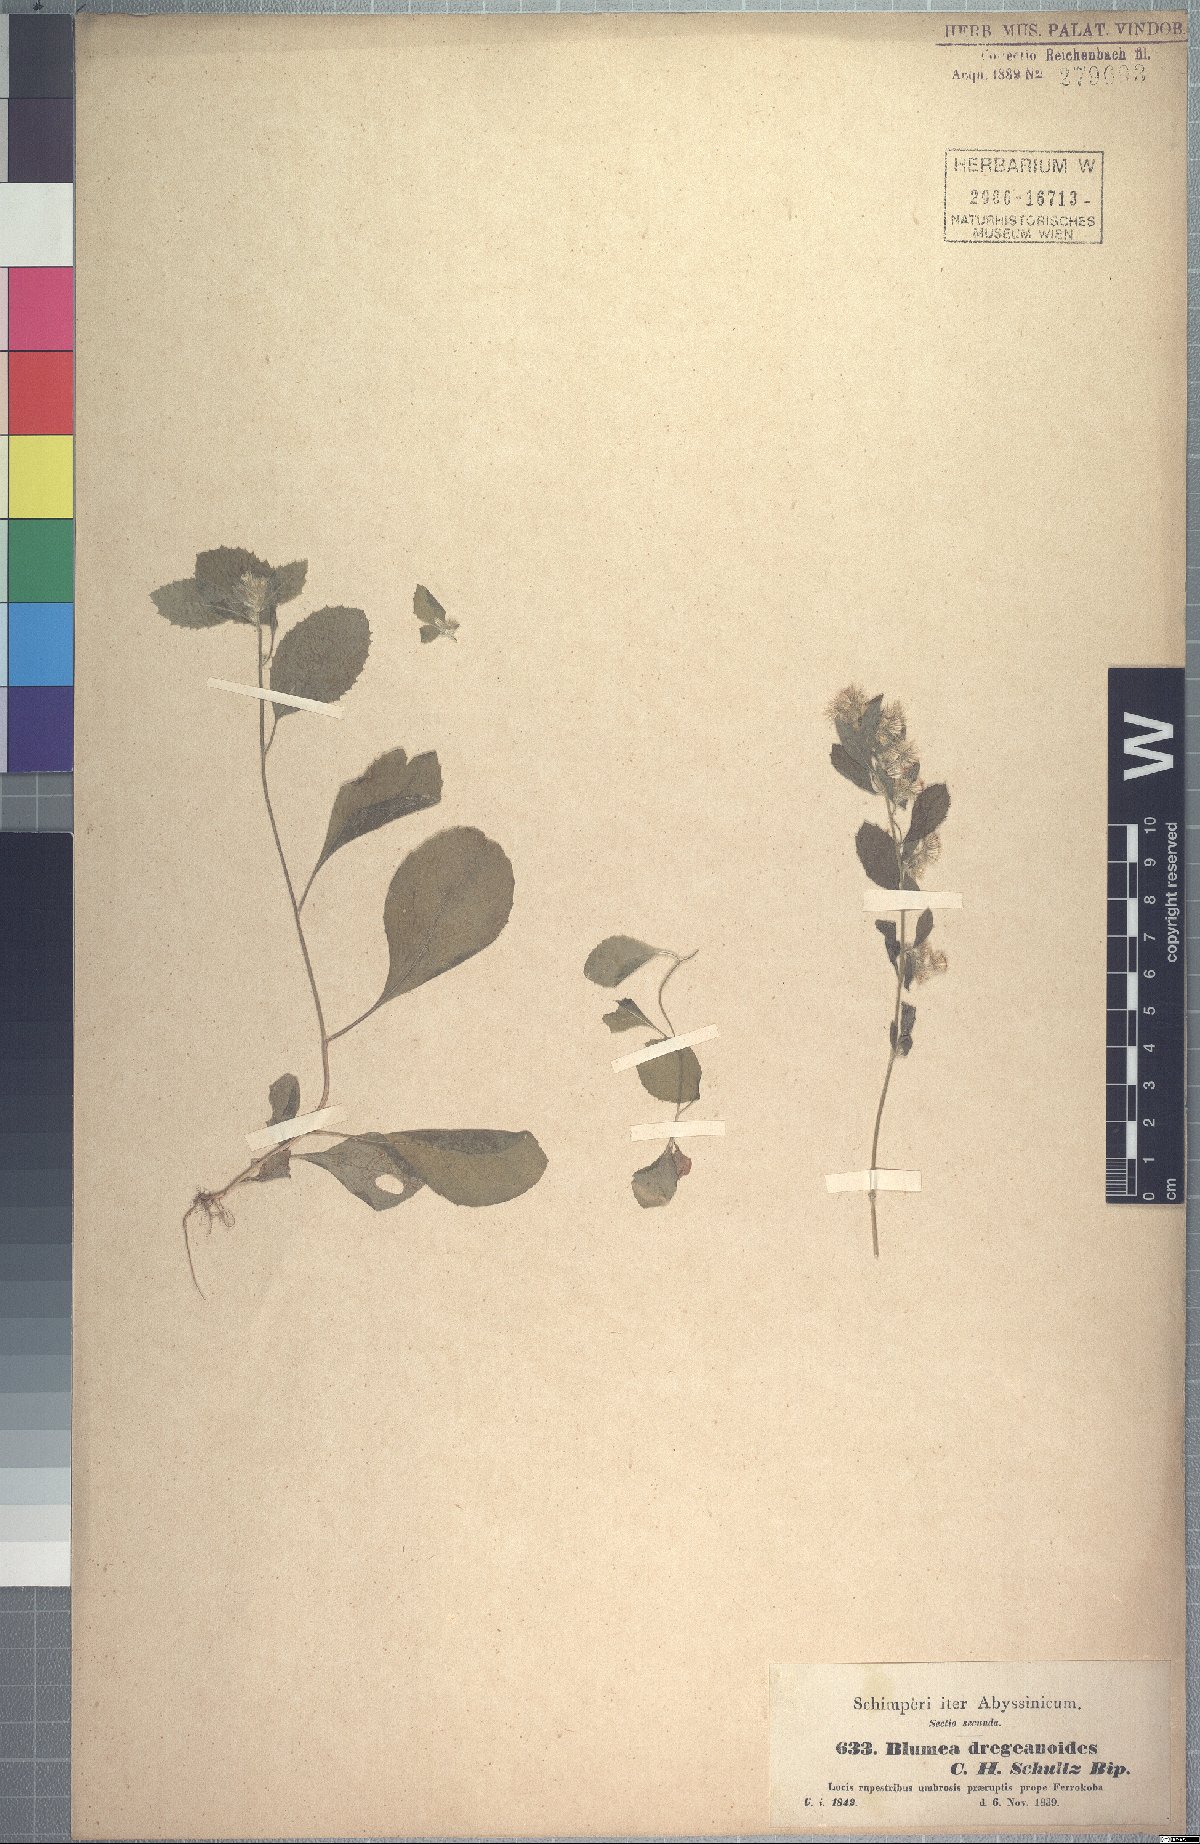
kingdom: Plantae
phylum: Tracheophyta
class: Magnoliopsida
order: Asterales
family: Asteraceae
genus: Blumea
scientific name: Blumea lacera
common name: Malay blumea
